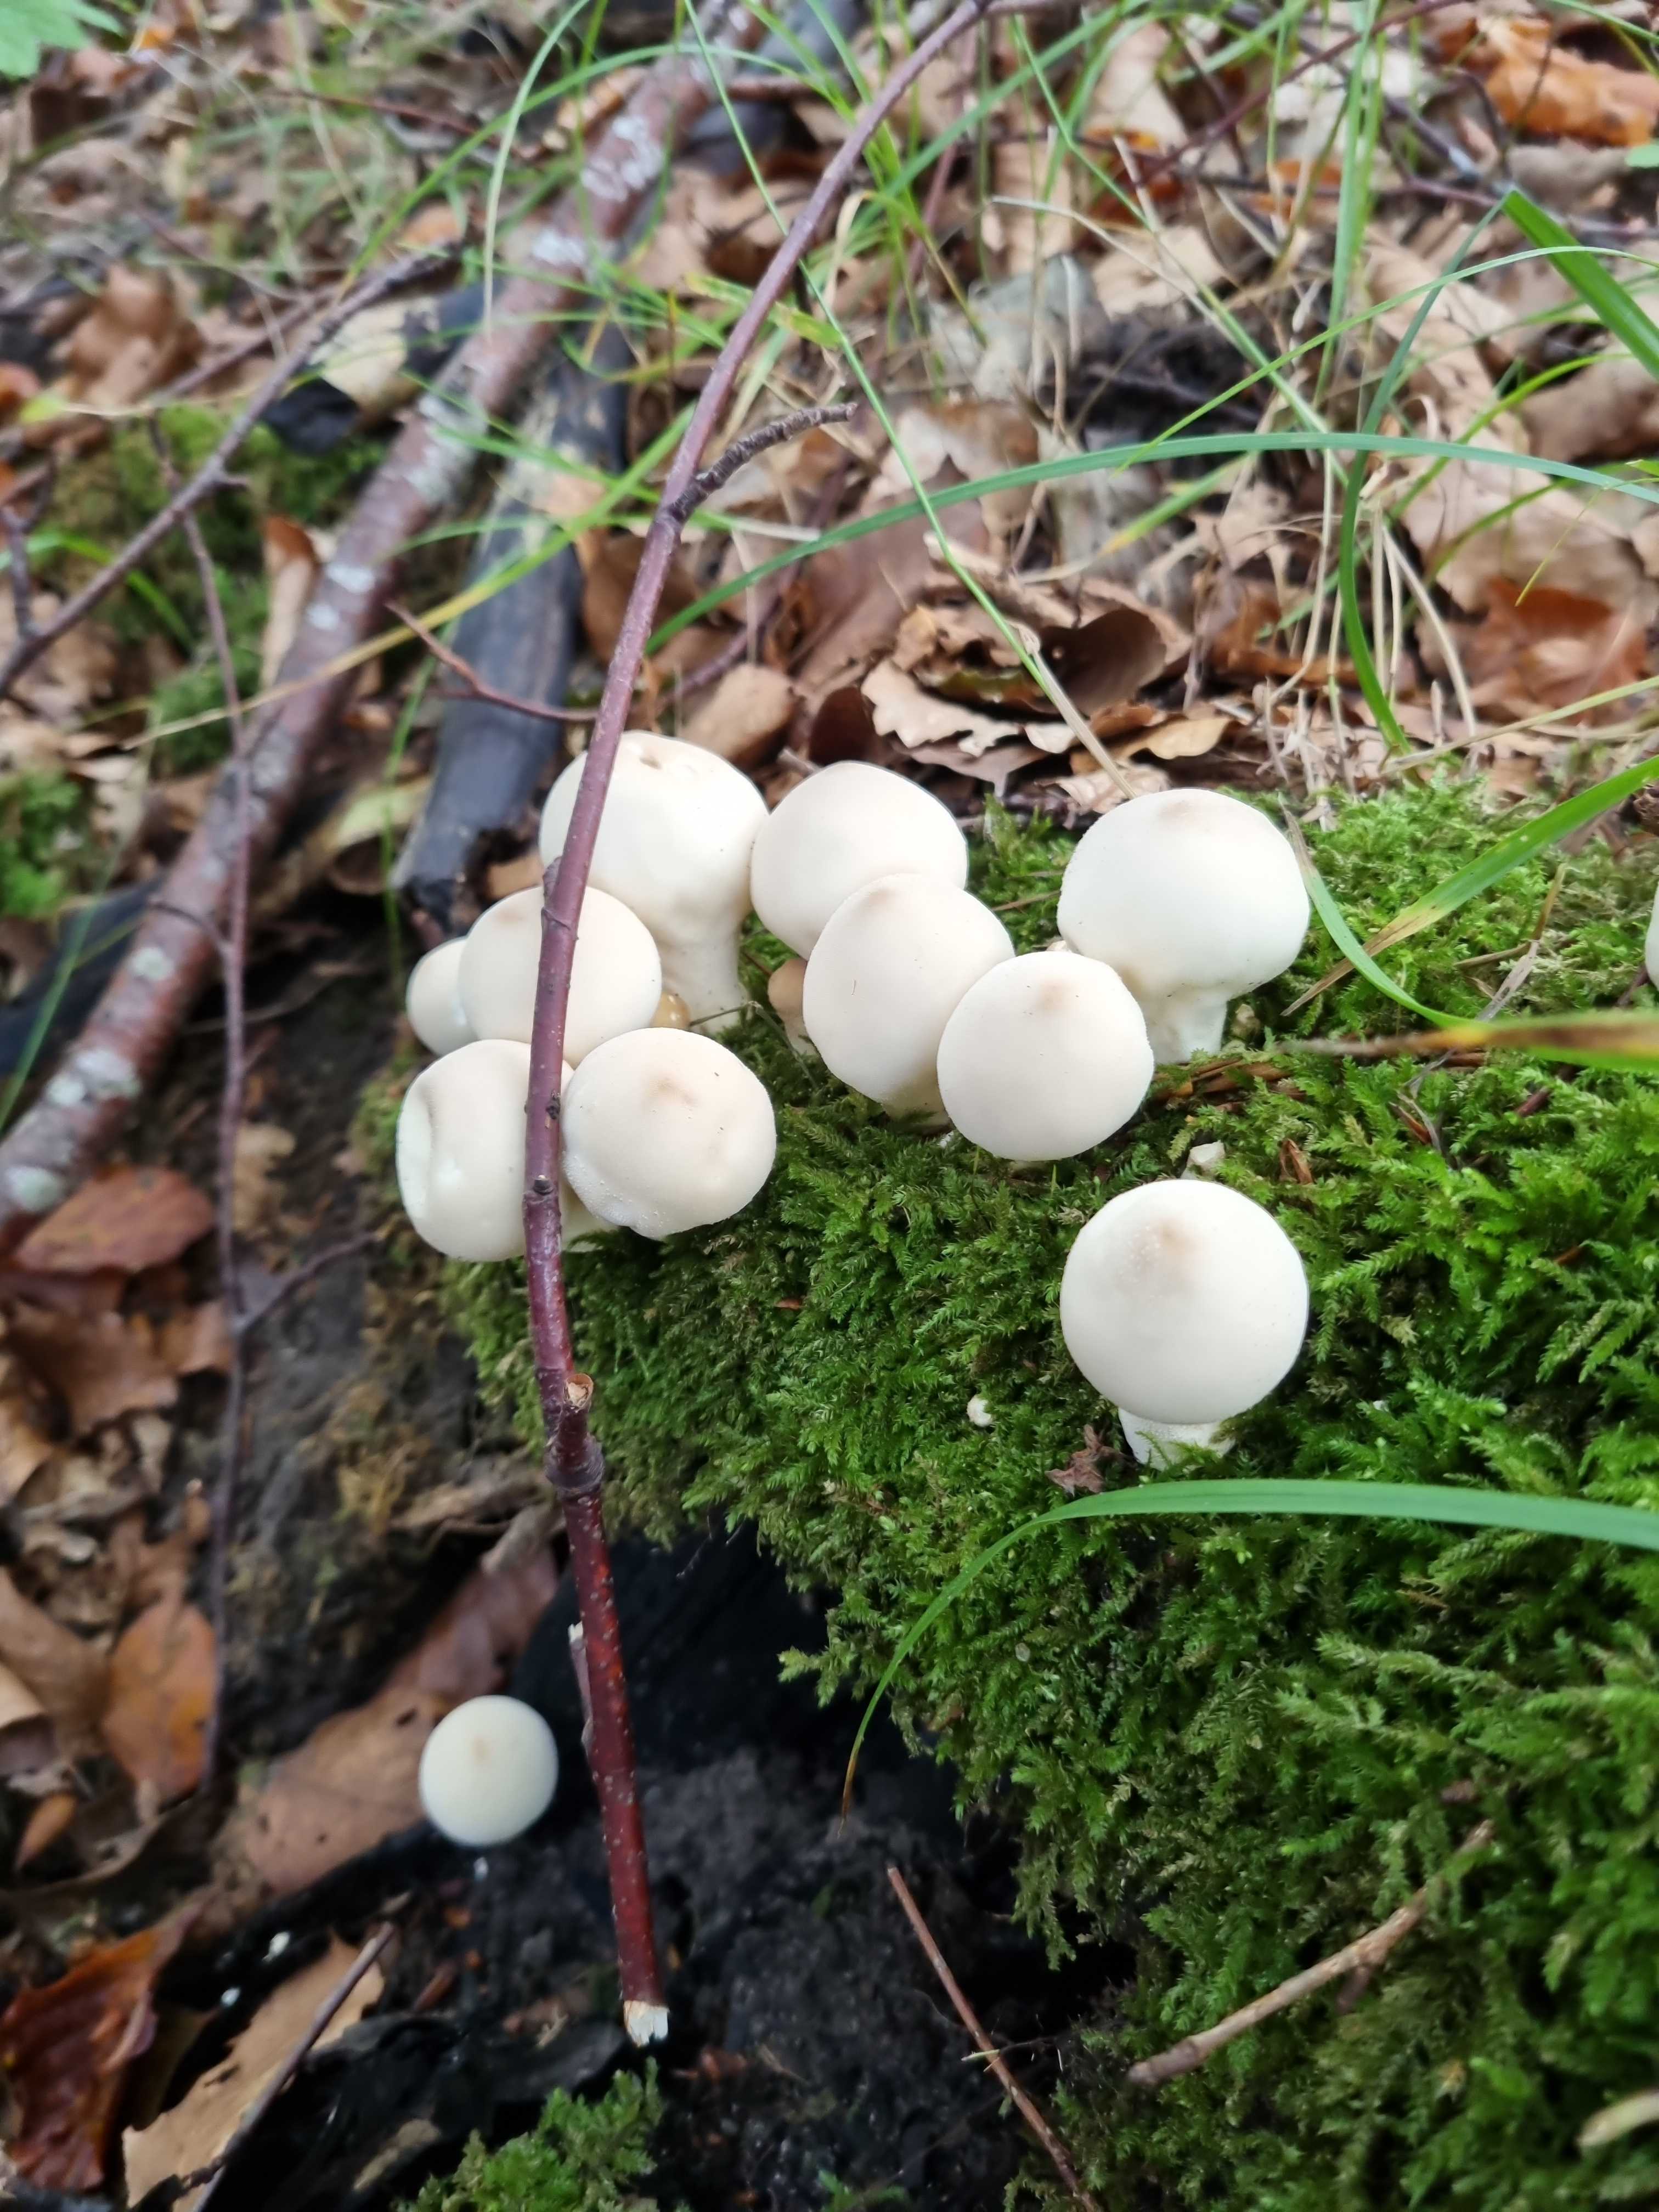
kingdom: Fungi
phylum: Basidiomycota
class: Agaricomycetes
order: Agaricales
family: Lycoperdaceae
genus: Apioperdon
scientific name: Apioperdon pyriforme
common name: pære-støvbold
